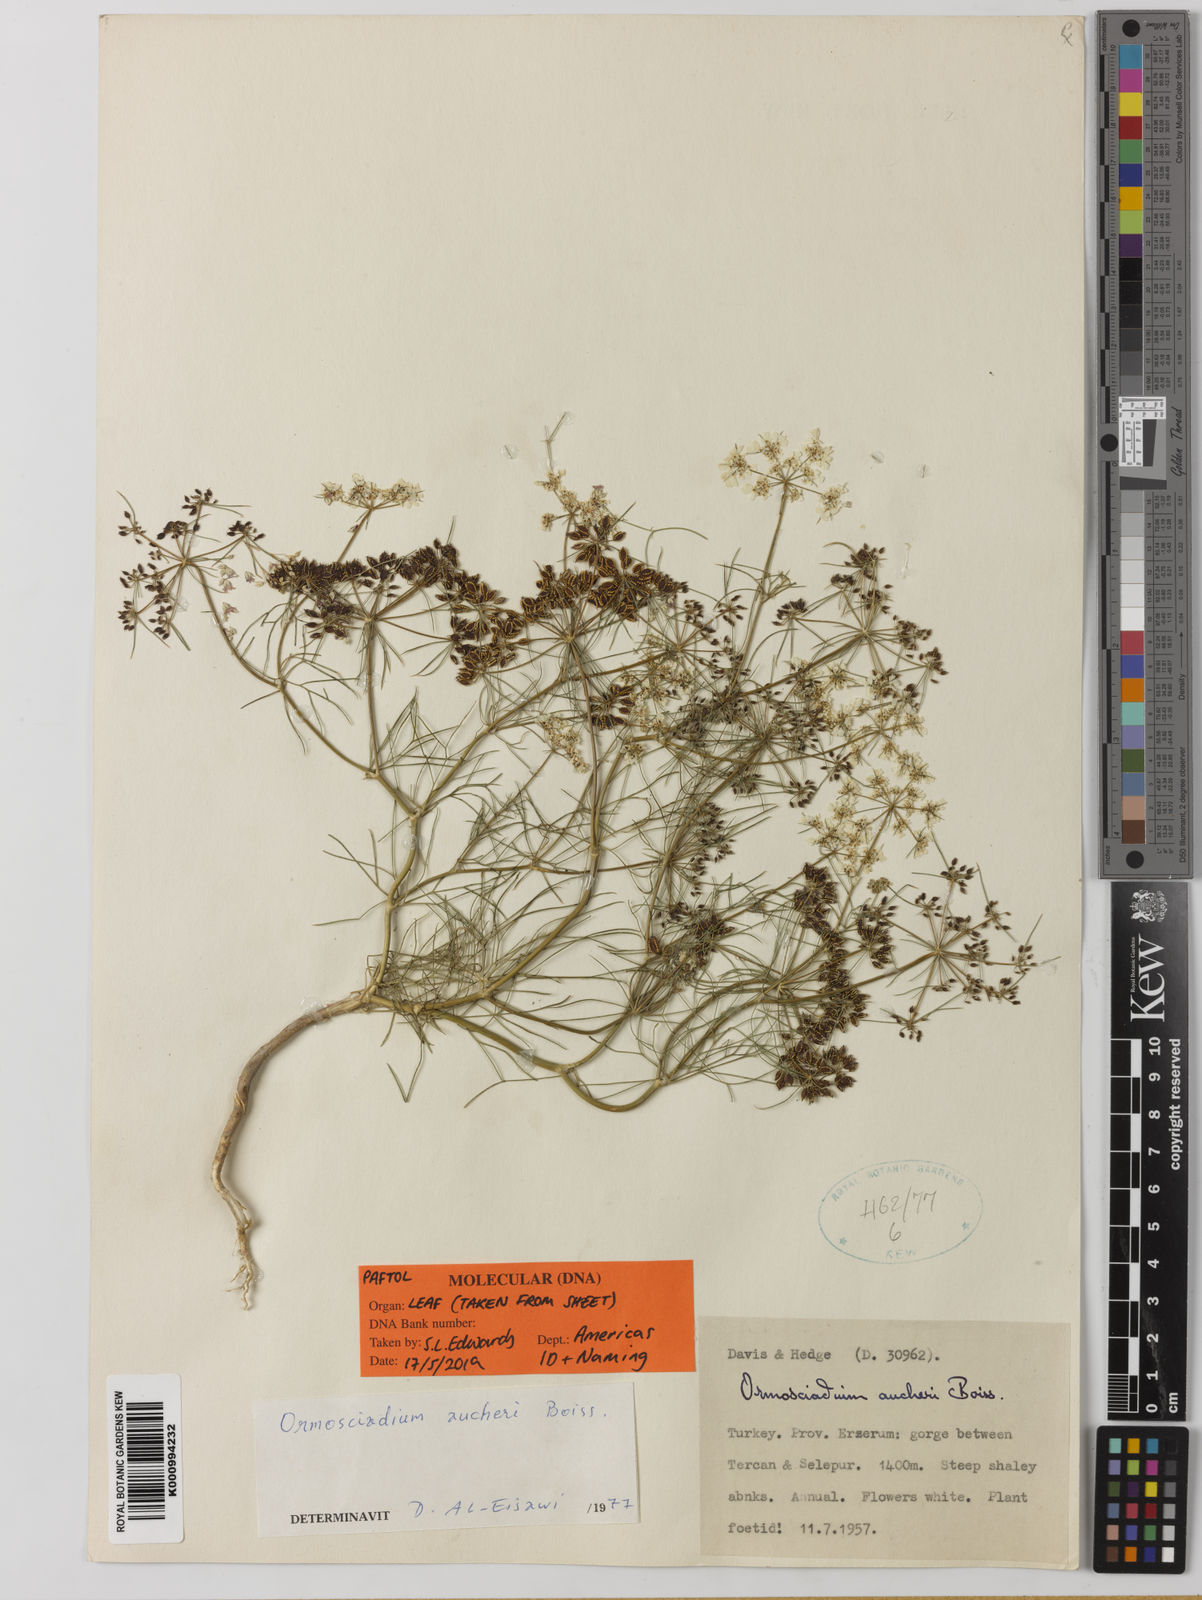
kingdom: Plantae
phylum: Tracheophyta
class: Magnoliopsida
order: Apiales
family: Apiaceae
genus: Ormosciadium
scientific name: Ormosciadium aucheri
